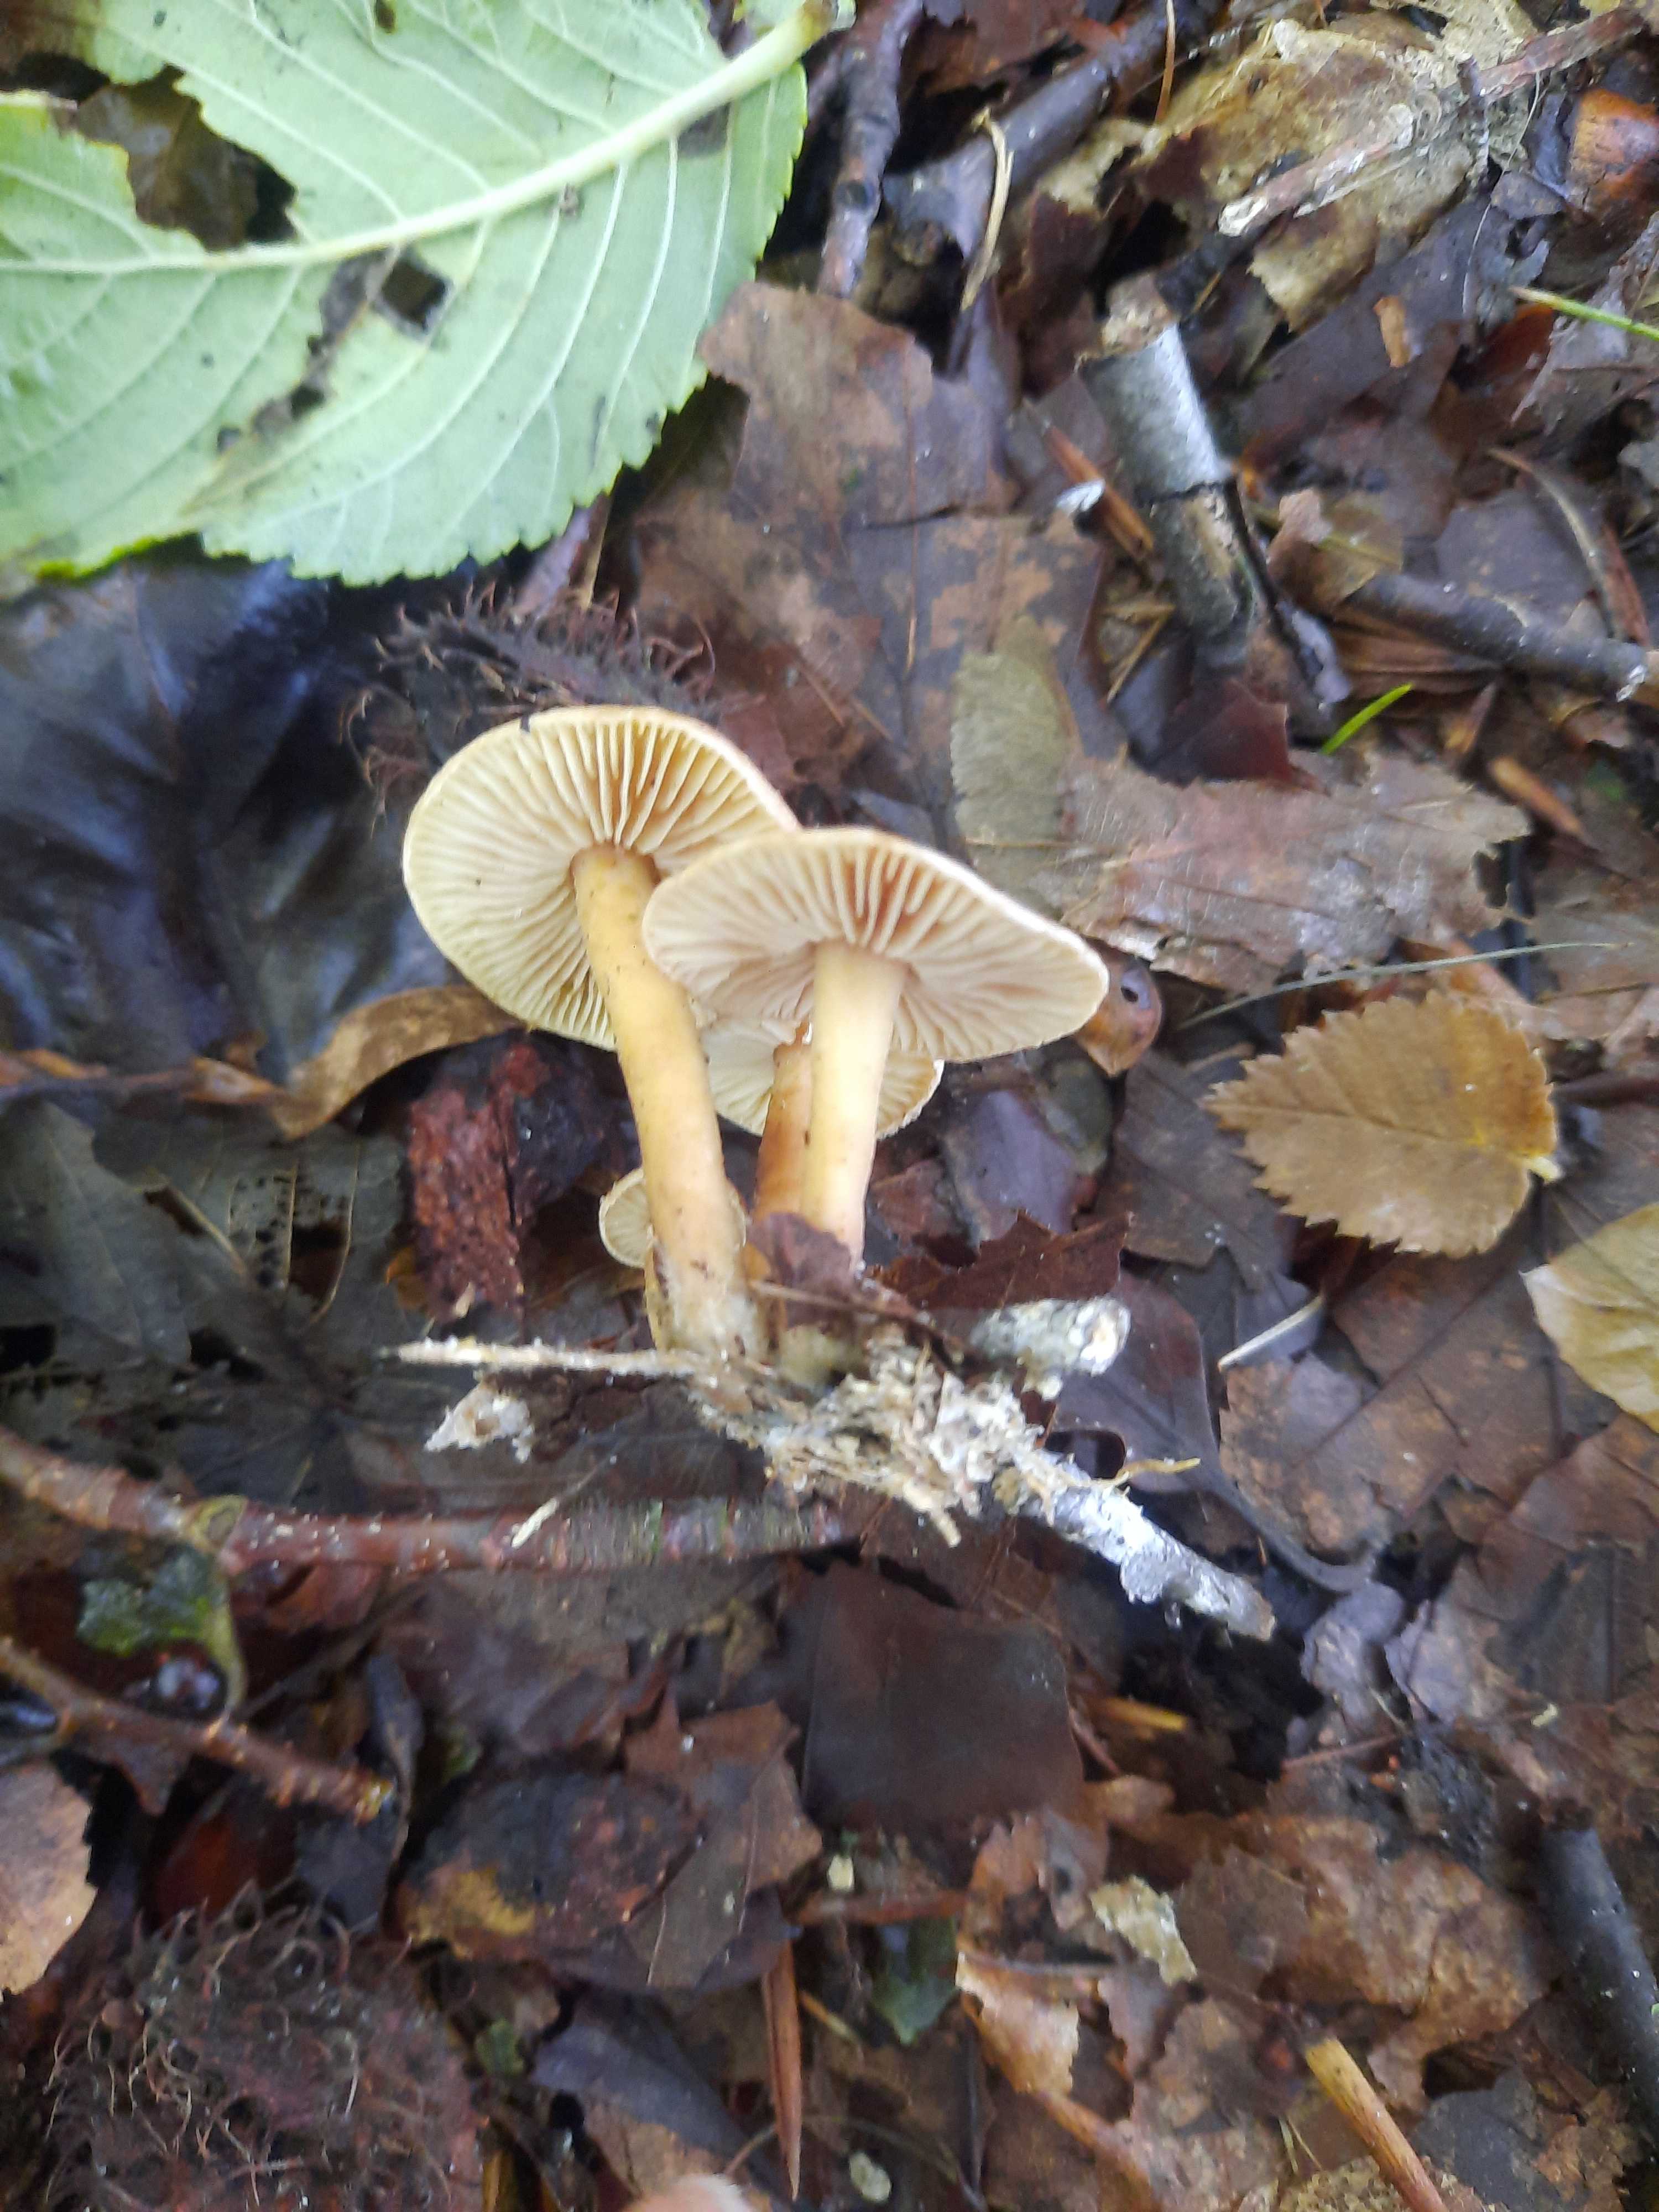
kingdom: Fungi
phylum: Basidiomycota
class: Agaricomycetes
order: Agaricales
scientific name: Agaricales
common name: champignonordenen
